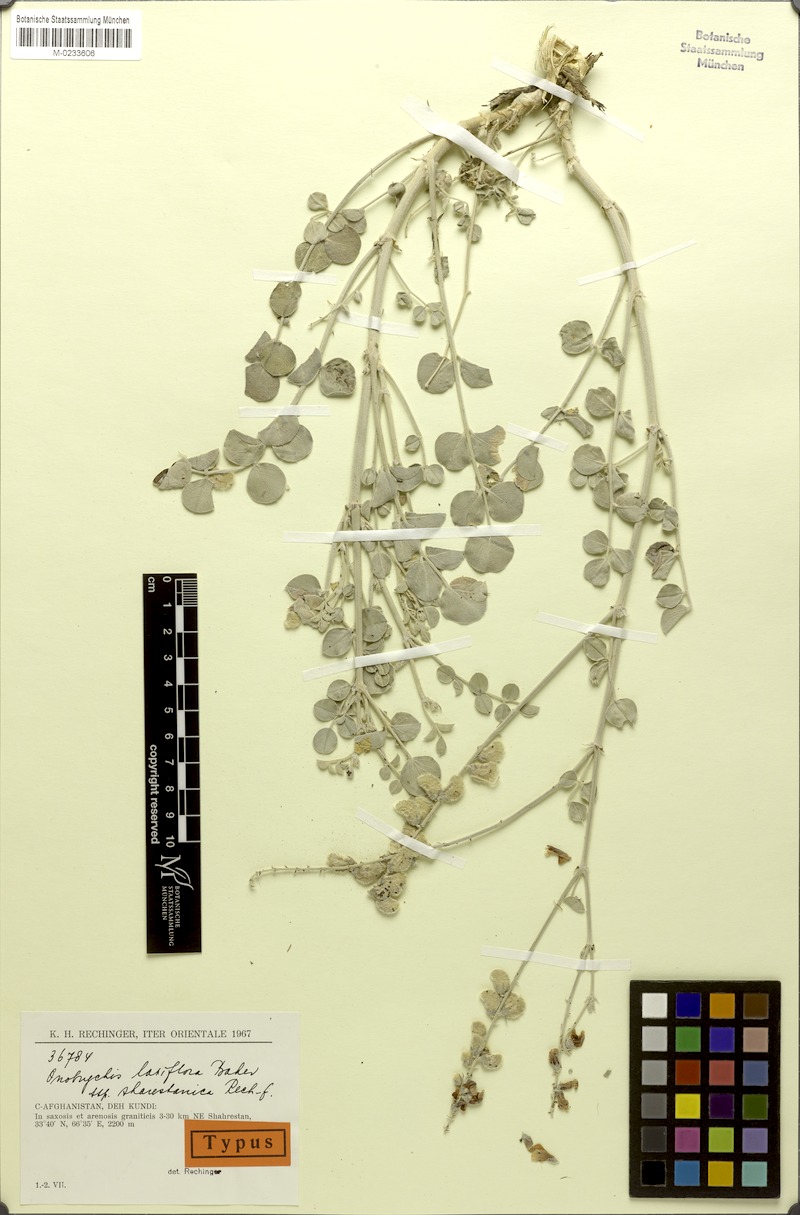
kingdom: Plantae
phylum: Tracheophyta
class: Magnoliopsida
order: Fabales
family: Fabaceae
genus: Onobrychis
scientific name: Onobrychis laxiflora
